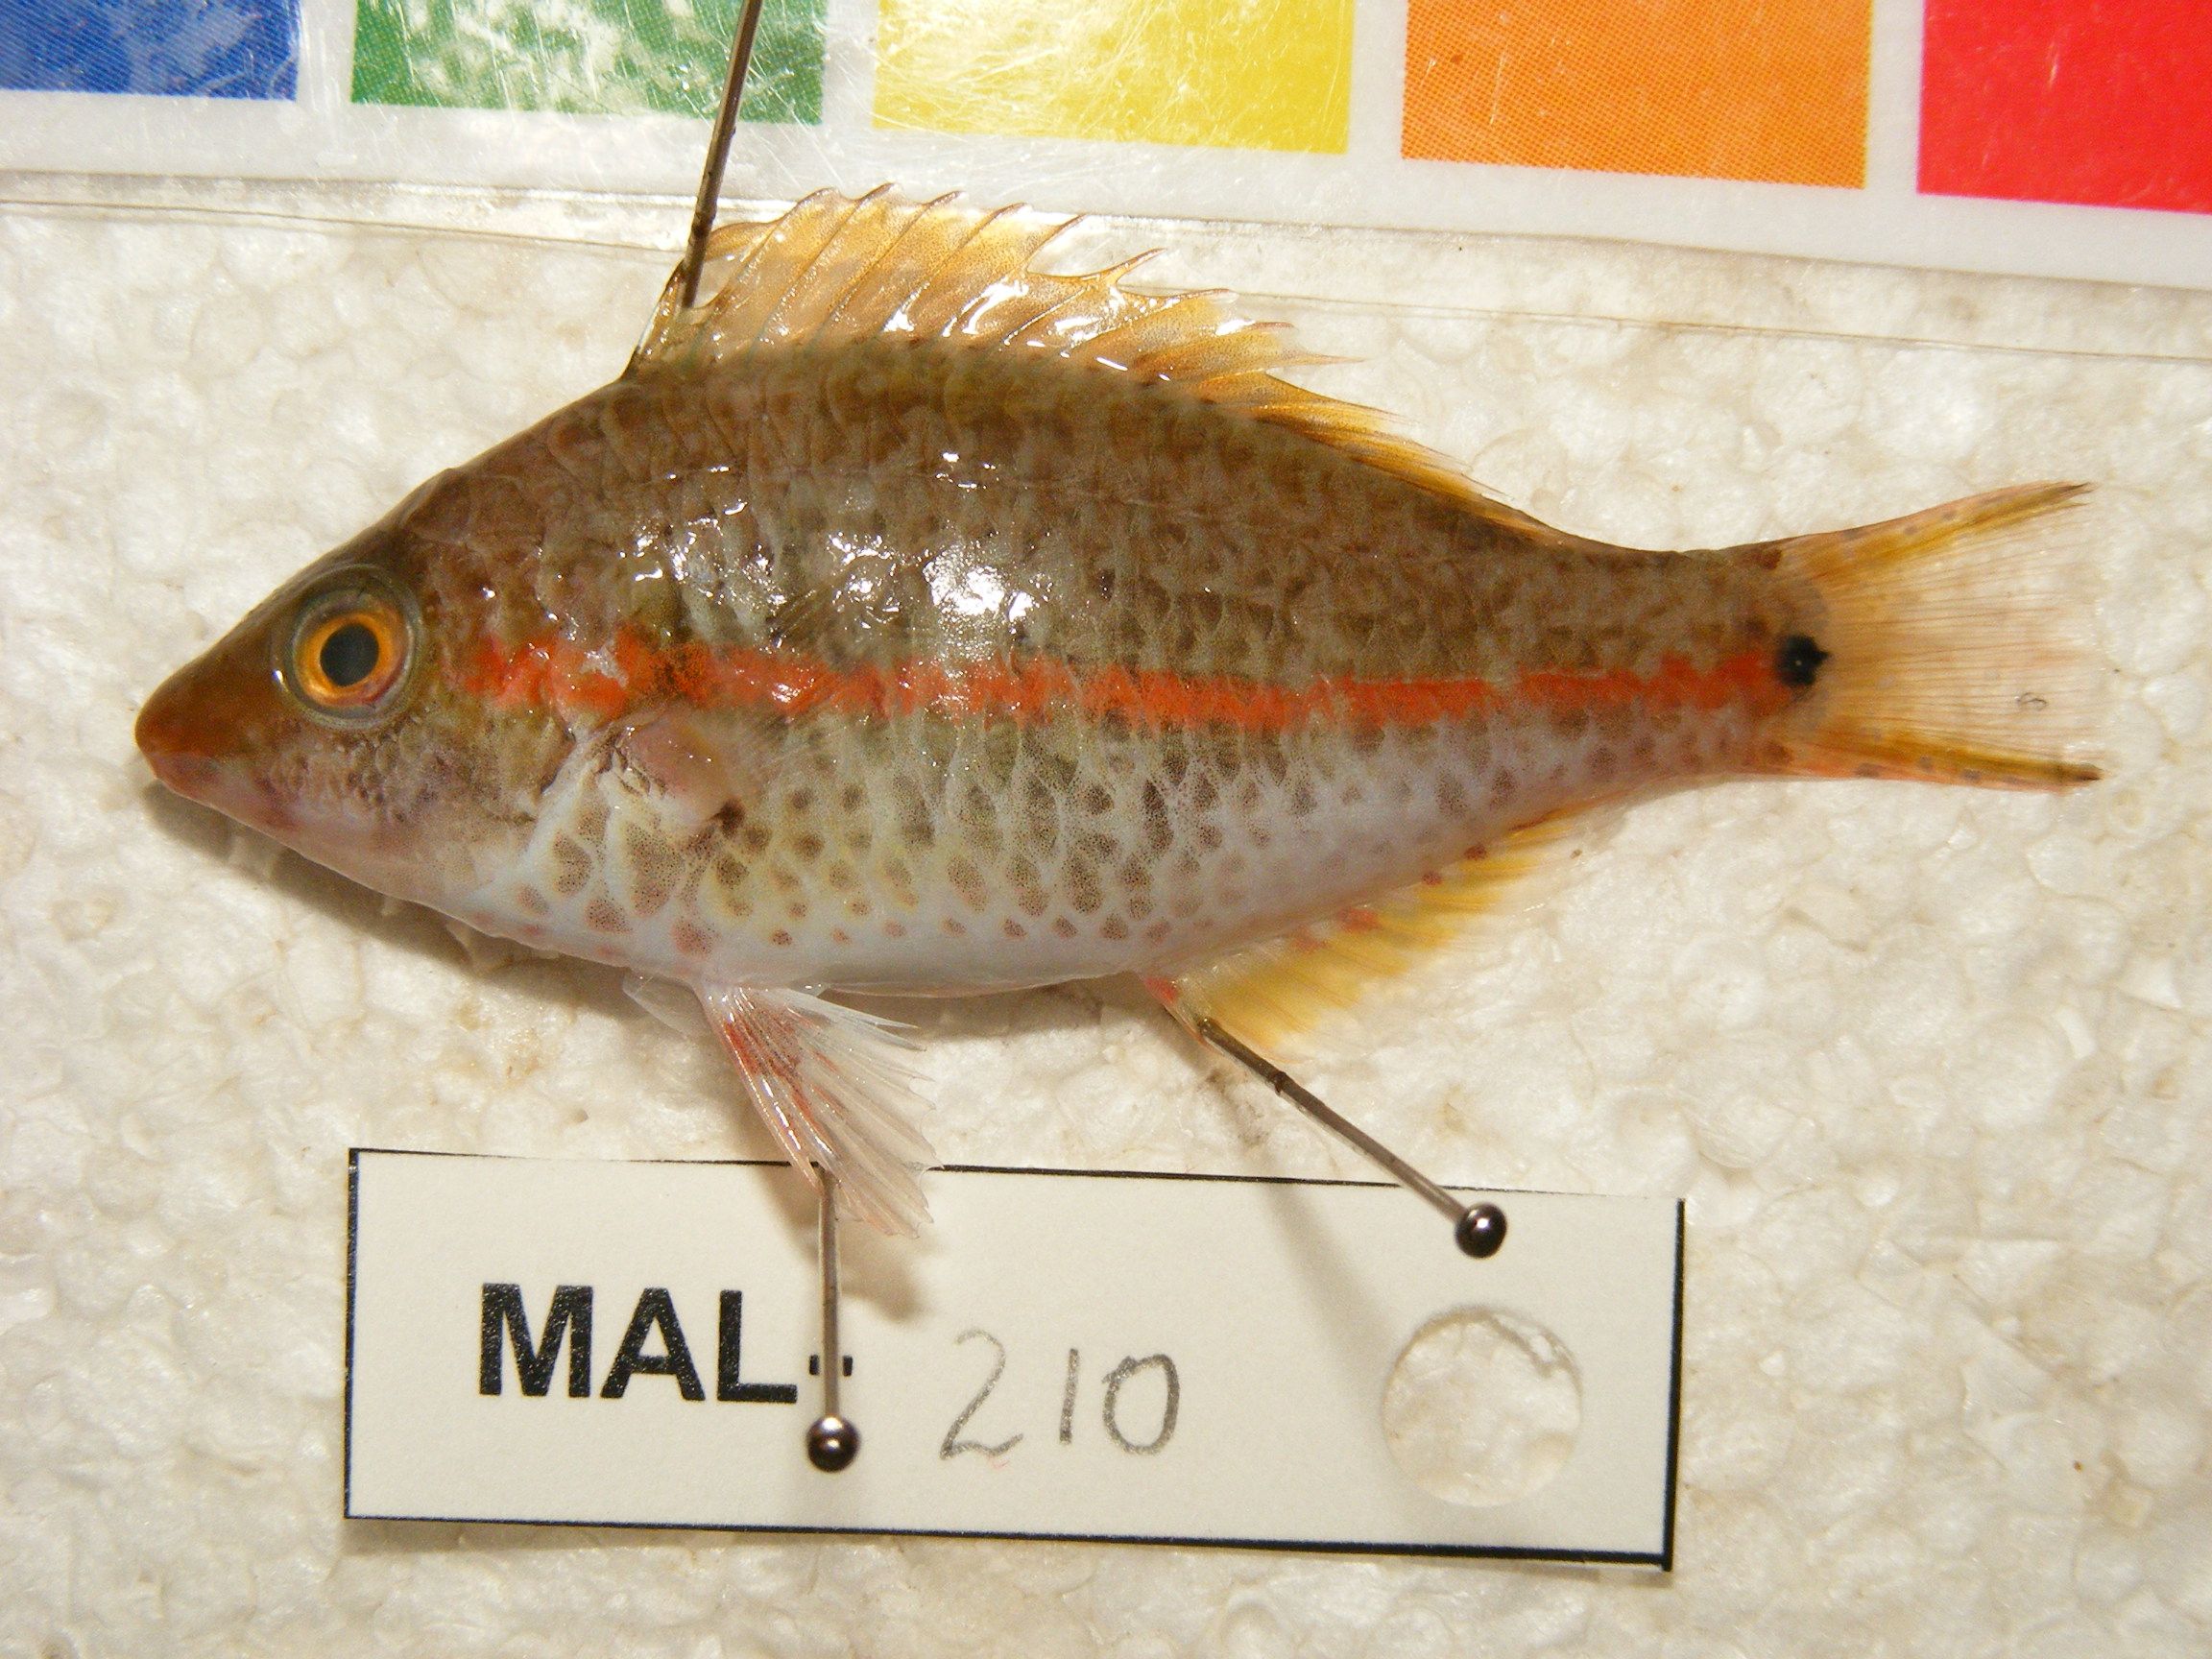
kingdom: Animalia
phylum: Chordata
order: Perciformes
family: Scaridae
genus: Hipposcarus
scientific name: Hipposcarus longiceps
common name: Pacific longnose parrotfish
